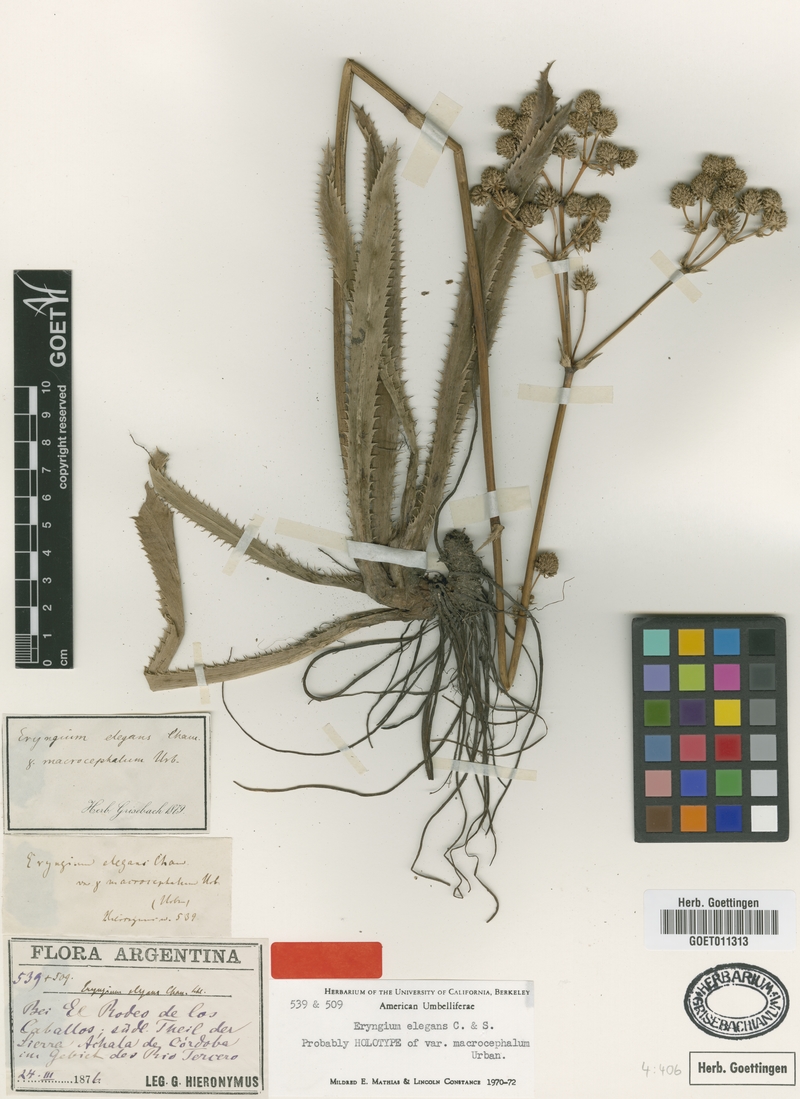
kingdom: Plantae
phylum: Tracheophyta
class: Magnoliopsida
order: Apiales
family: Apiaceae
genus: Eryngium
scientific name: Eryngium elegans
